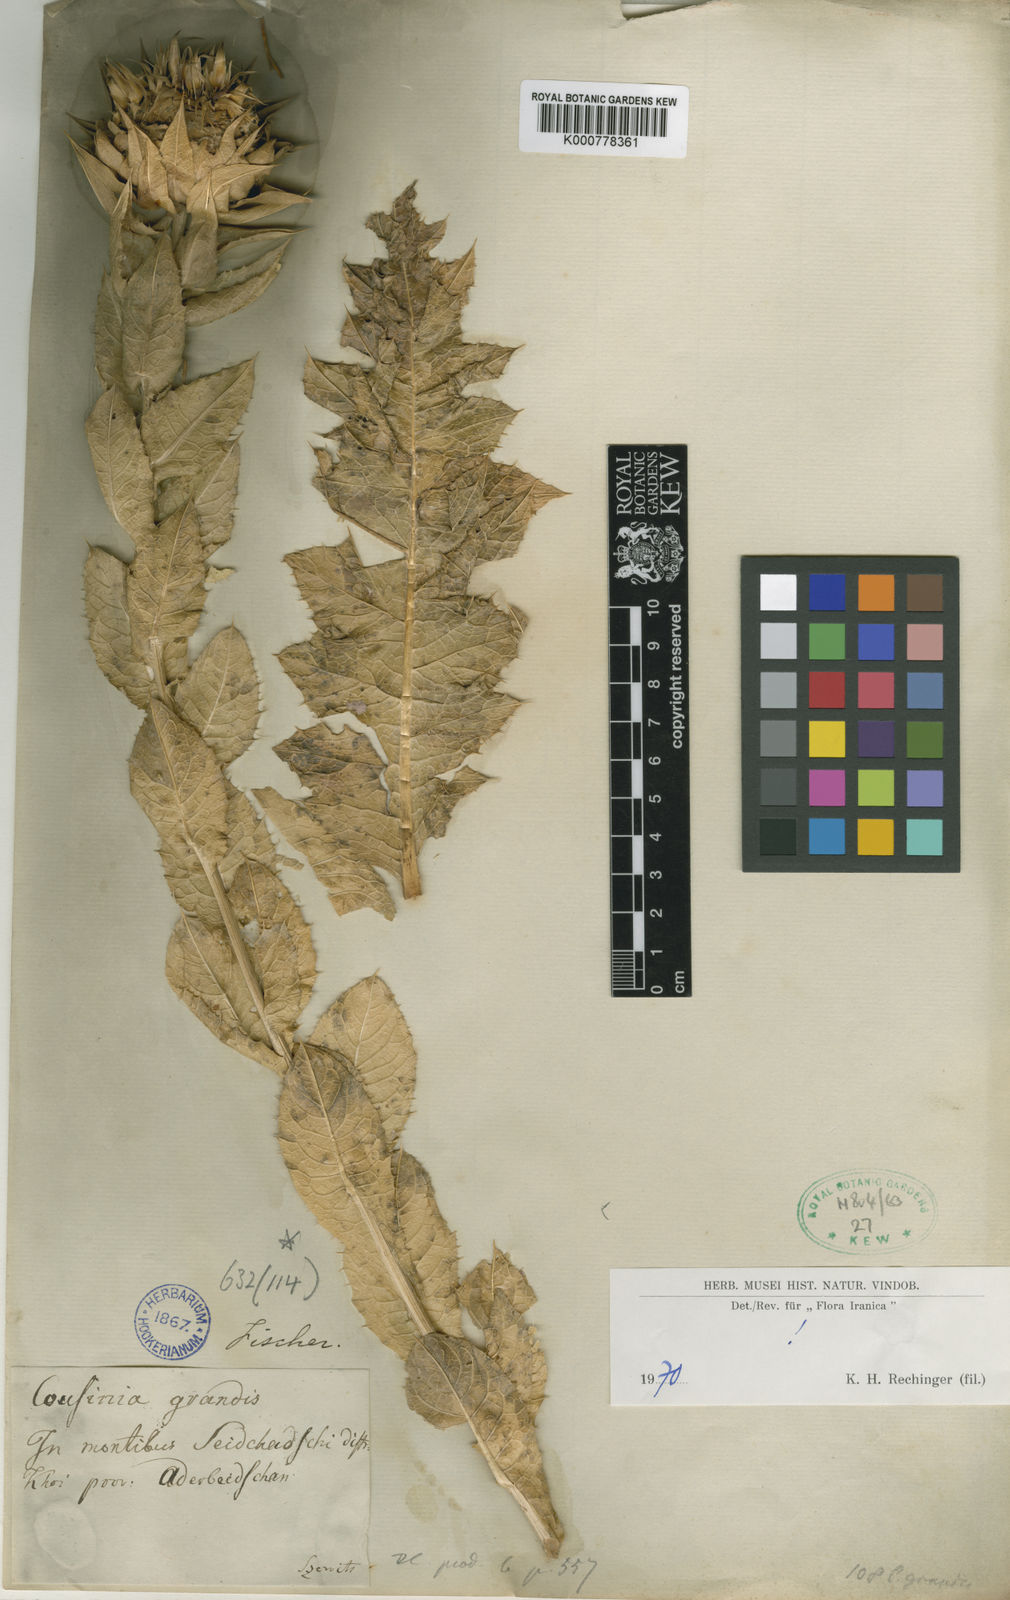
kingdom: Plantae
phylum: Tracheophyta
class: Magnoliopsida
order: Asterales
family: Asteraceae
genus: Cousinia
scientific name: Cousinia grandis
